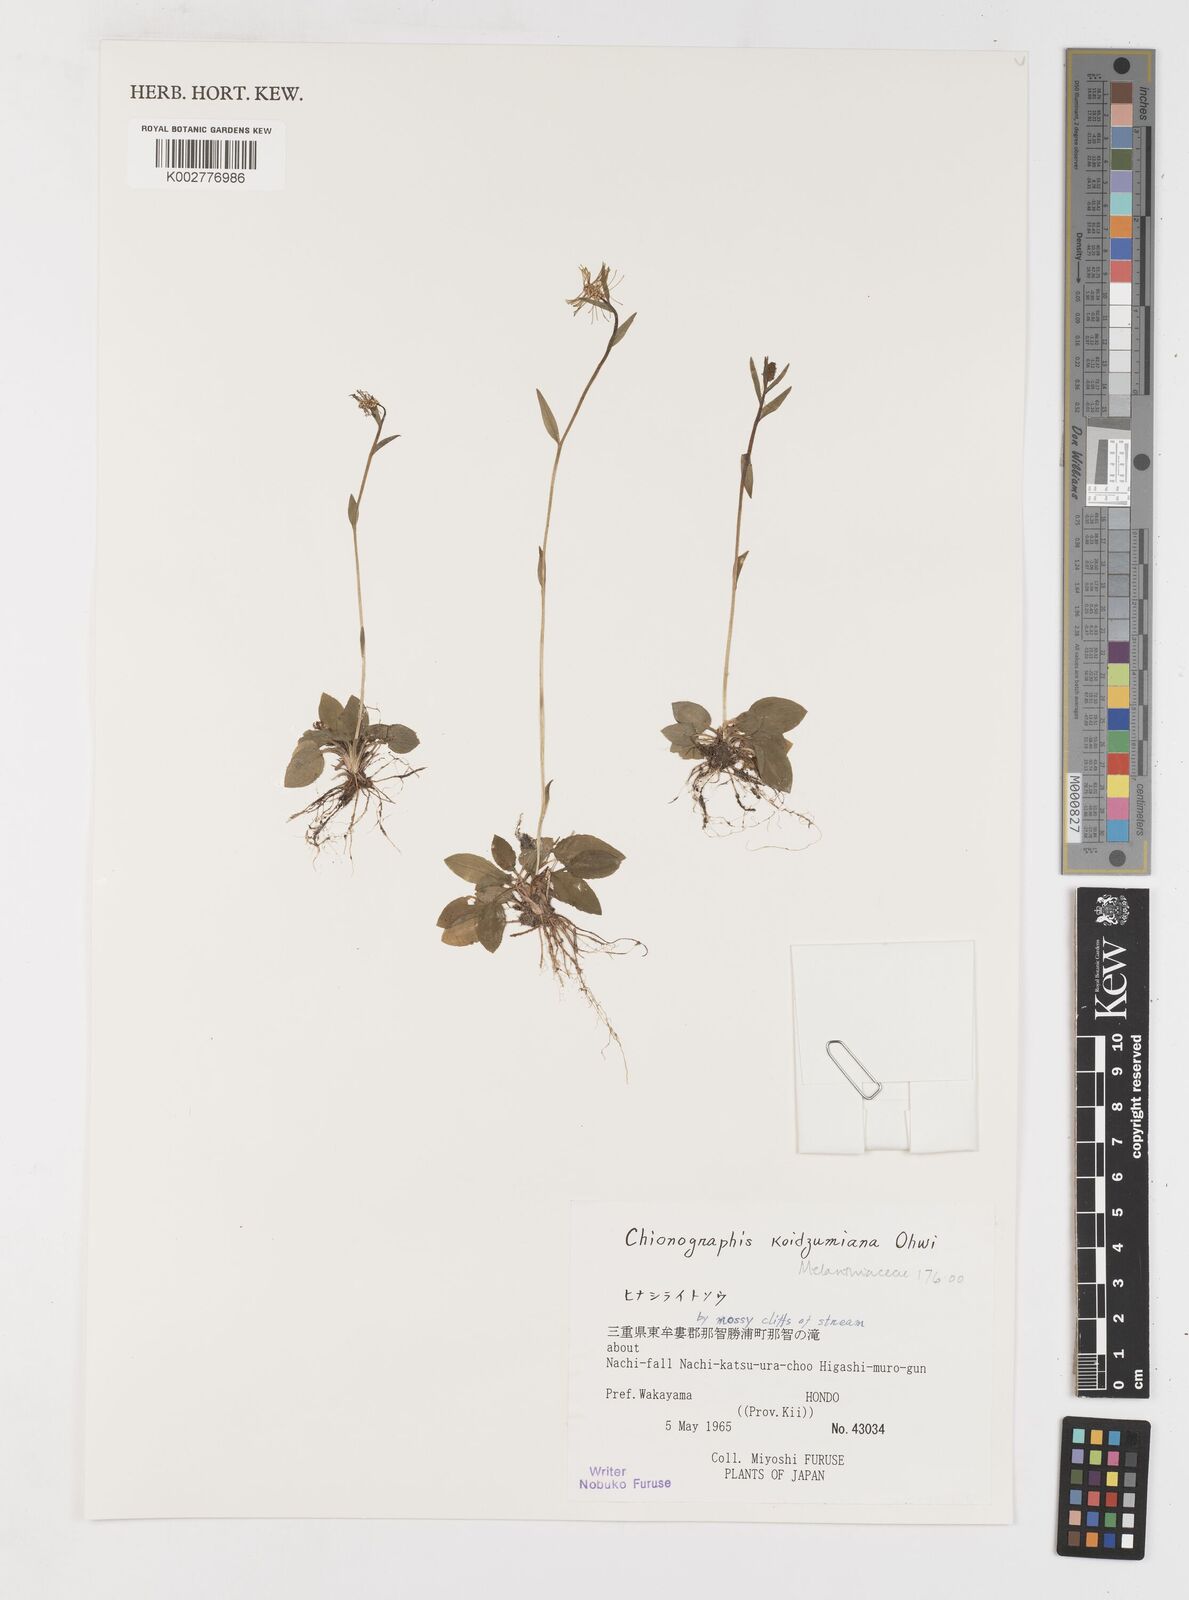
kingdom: Plantae
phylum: Tracheophyta
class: Liliopsida
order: Liliales
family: Melanthiaceae
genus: Chamaelirium
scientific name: Chamaelirium koidzumianum
